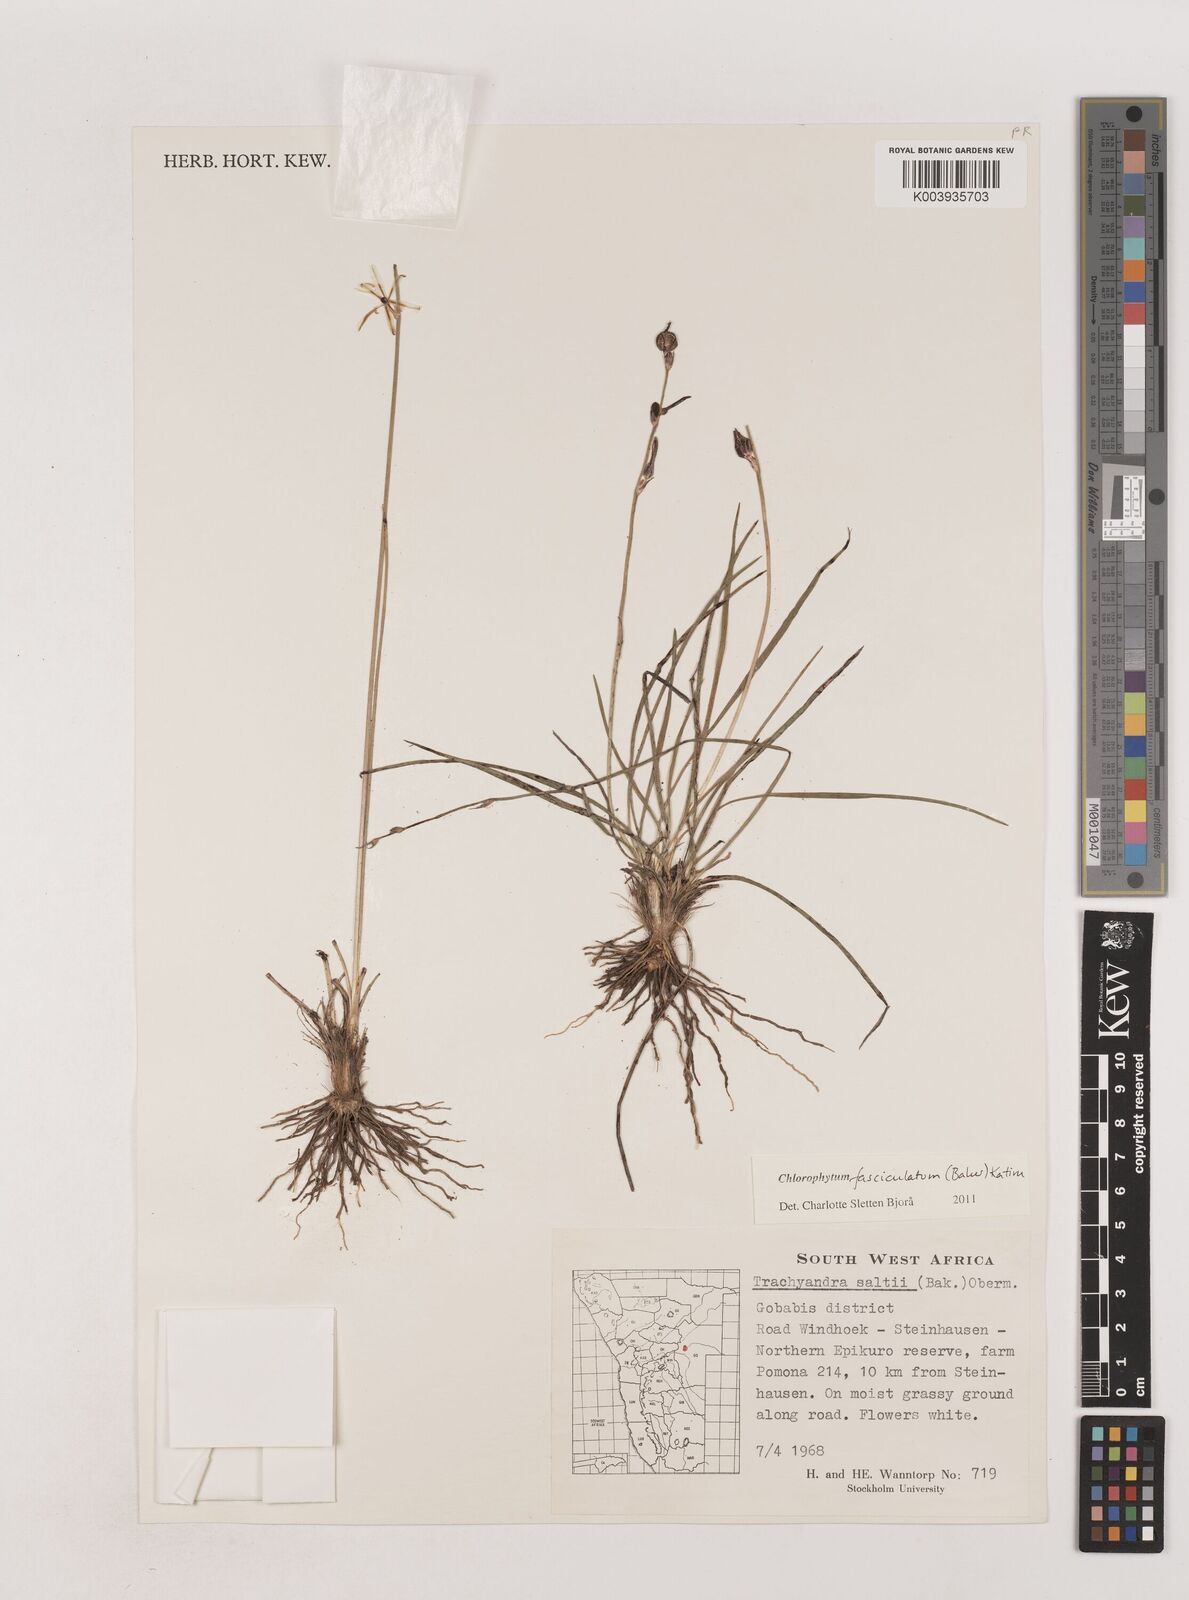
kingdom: Plantae
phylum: Tracheophyta
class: Liliopsida
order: Asparagales
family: Asparagaceae
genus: Chlorophytum
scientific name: Chlorophytum fasciculatum
